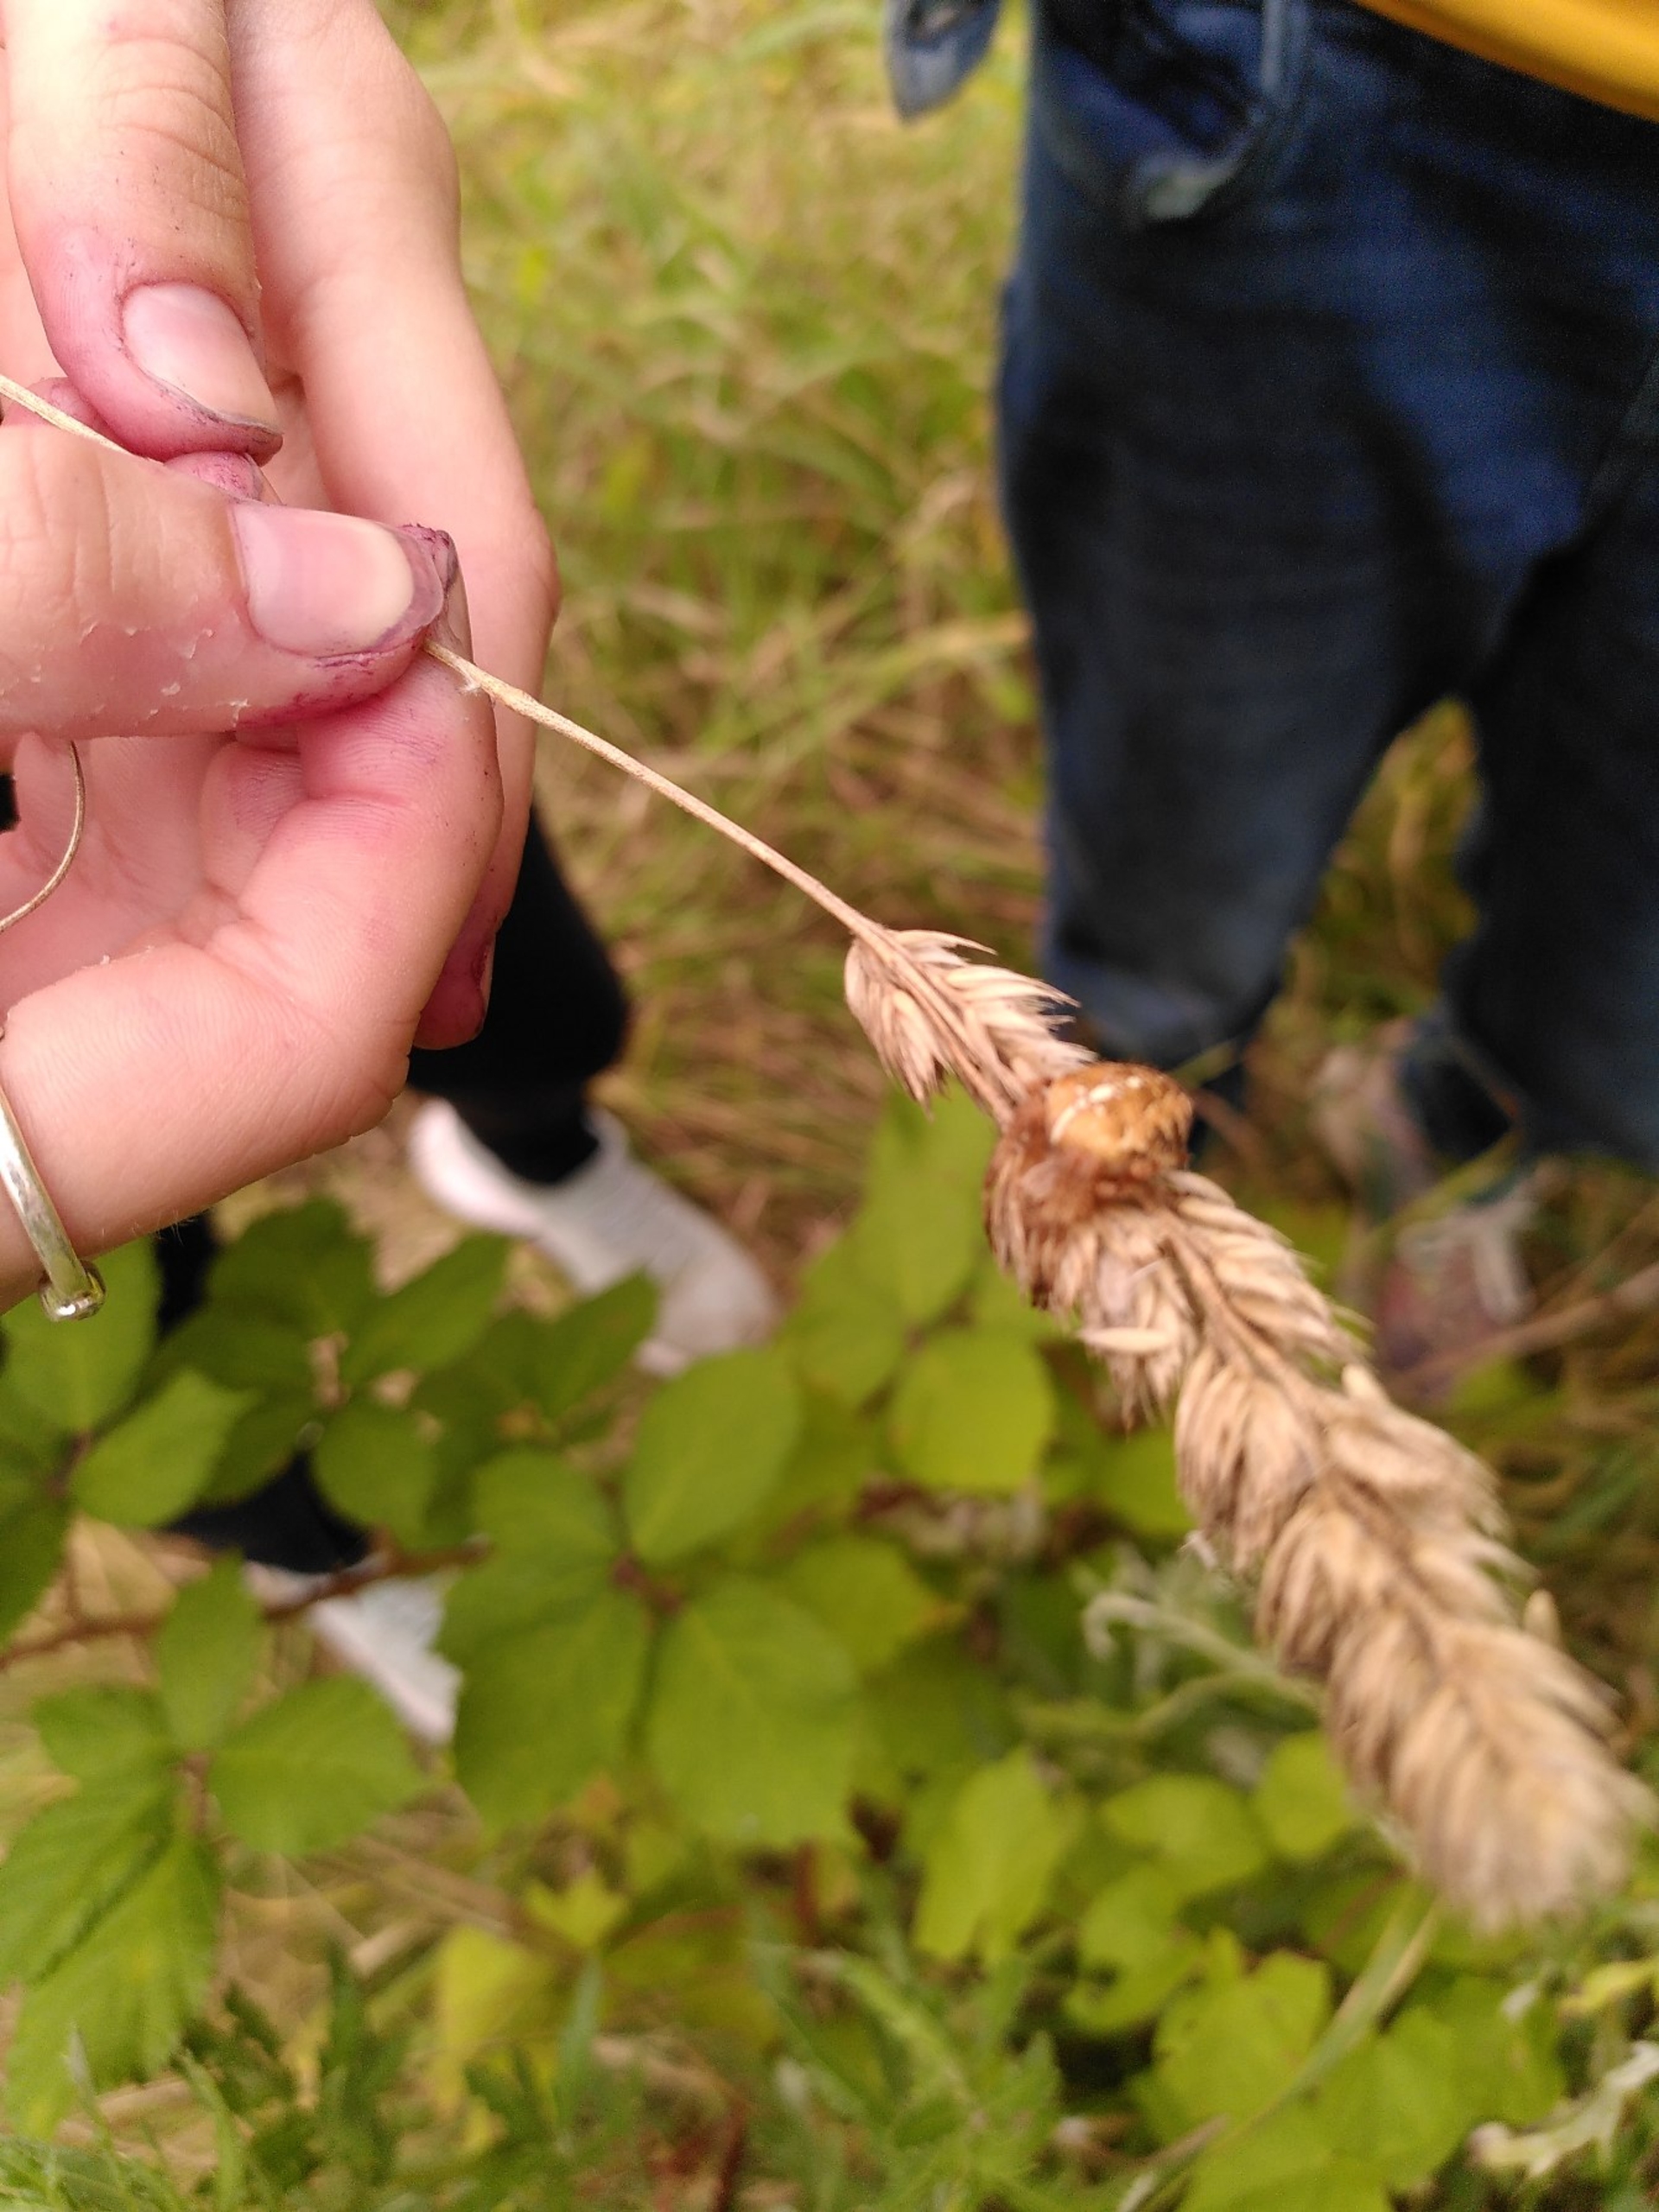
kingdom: Animalia
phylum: Arthropoda
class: Arachnida
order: Araneae
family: Araneidae
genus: Araneus
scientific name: Araneus diadematus
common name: Korsedderkop
